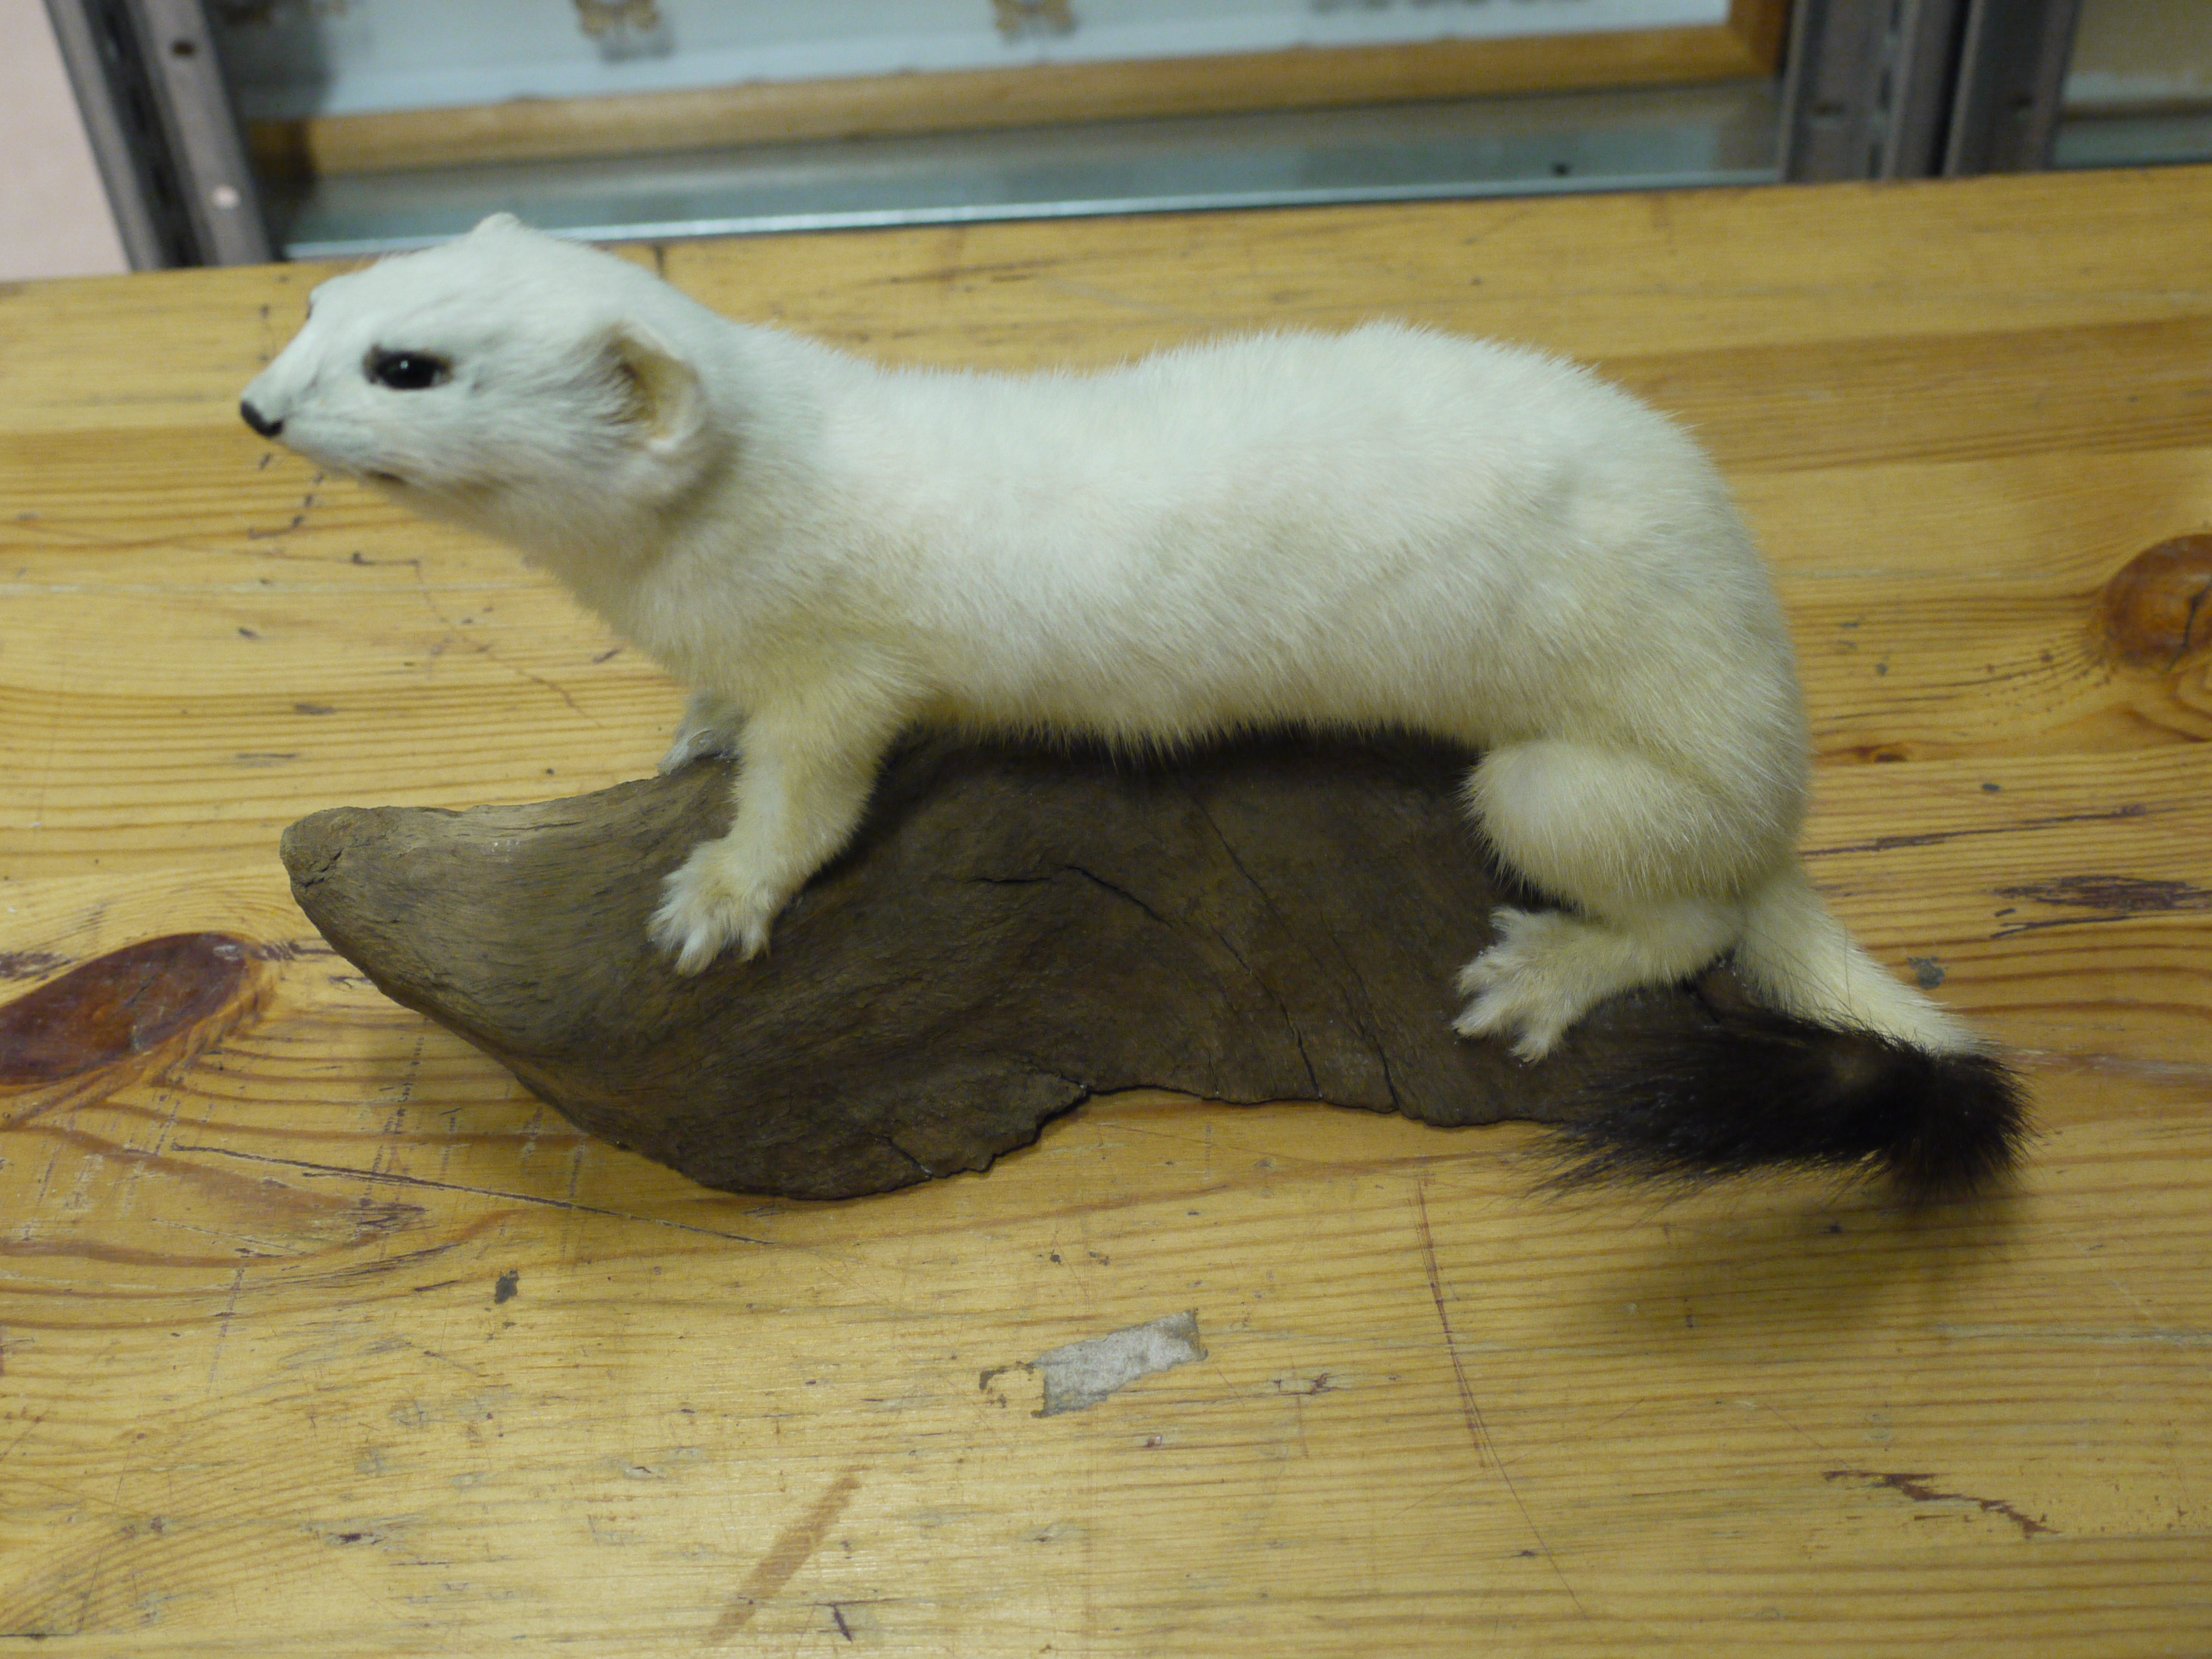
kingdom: Animalia
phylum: Chordata
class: Mammalia
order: Carnivora
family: Mustelidae
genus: Mustela
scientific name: Mustela erminea
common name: Stoat
